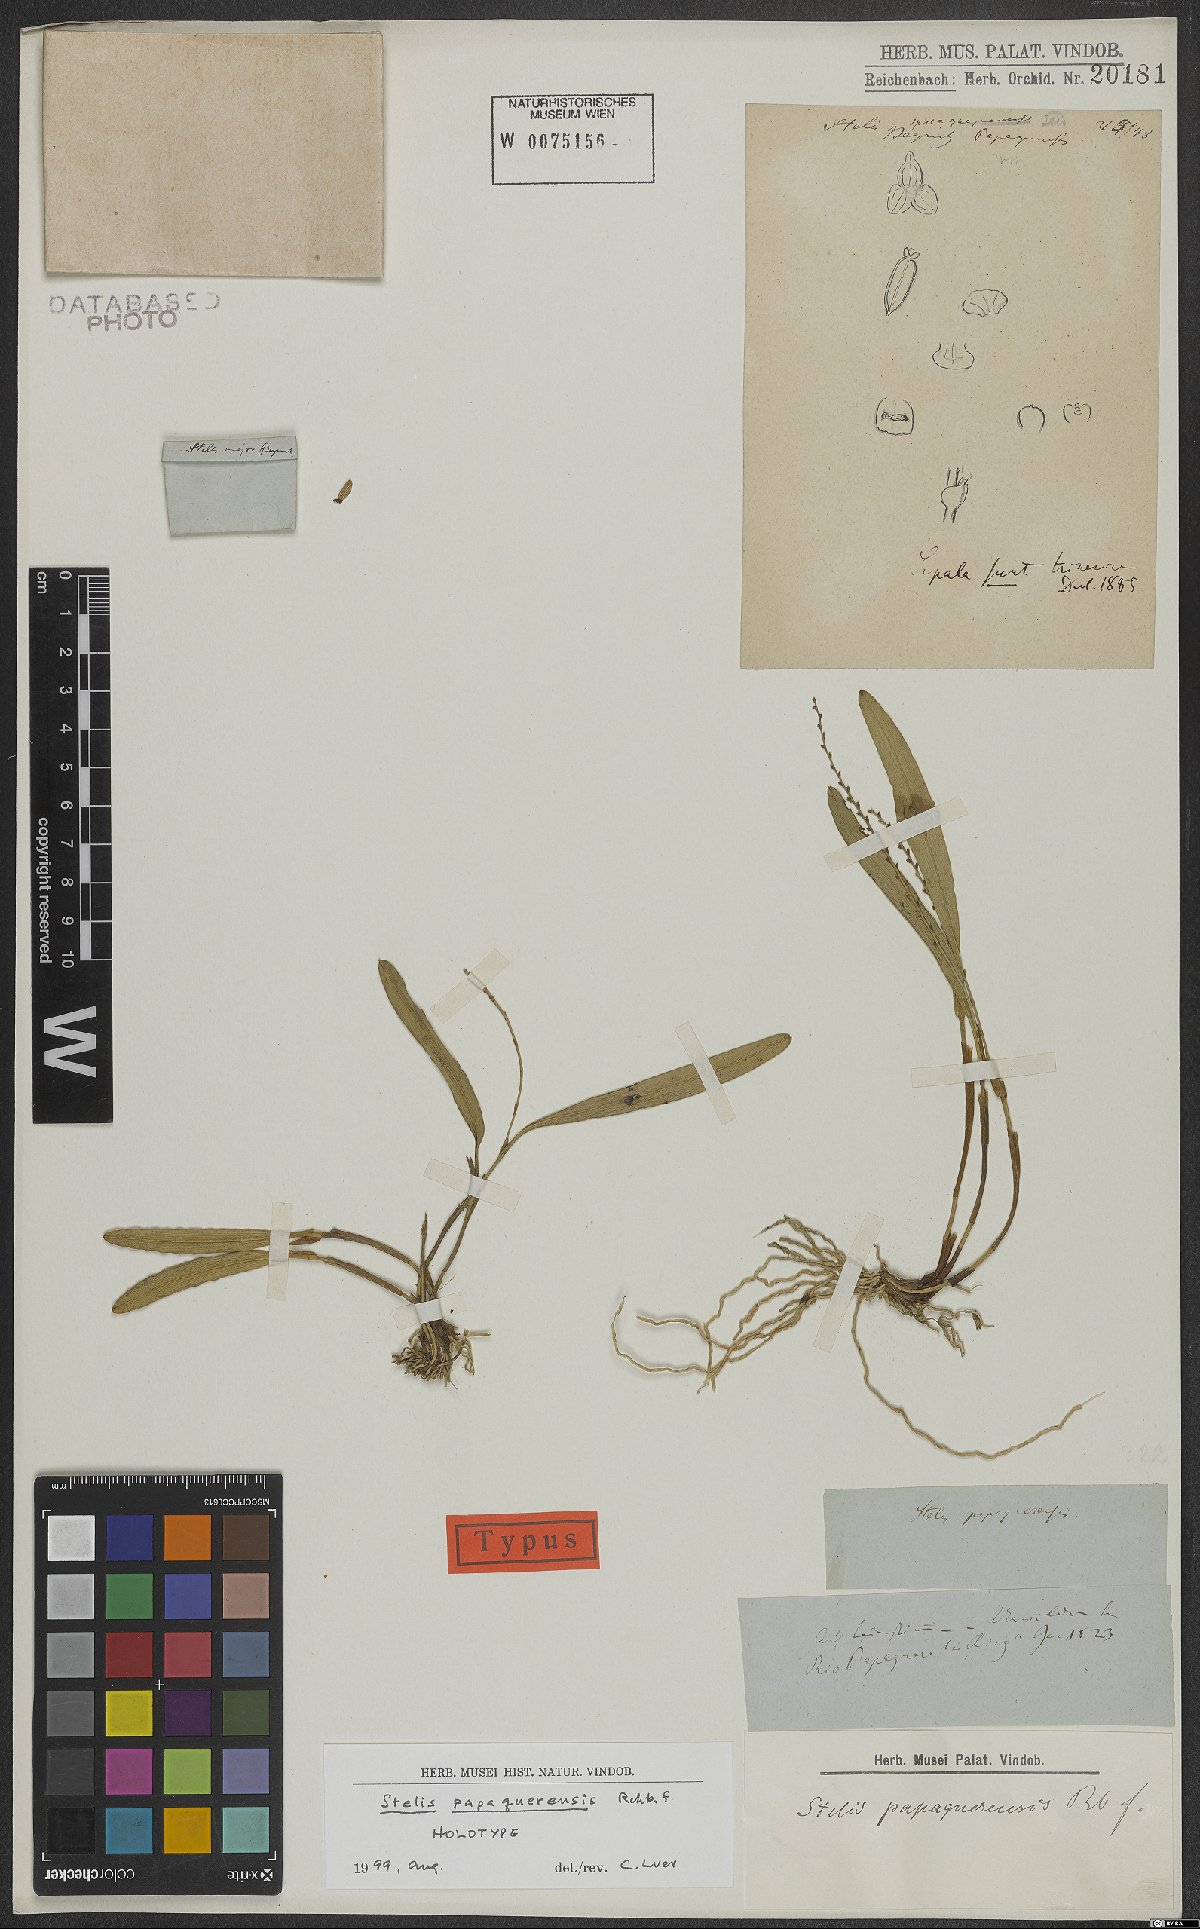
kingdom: Plantae
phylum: Tracheophyta
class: Liliopsida
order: Asparagales
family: Orchidaceae
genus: Stelis
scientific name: Stelis papaquerensis
